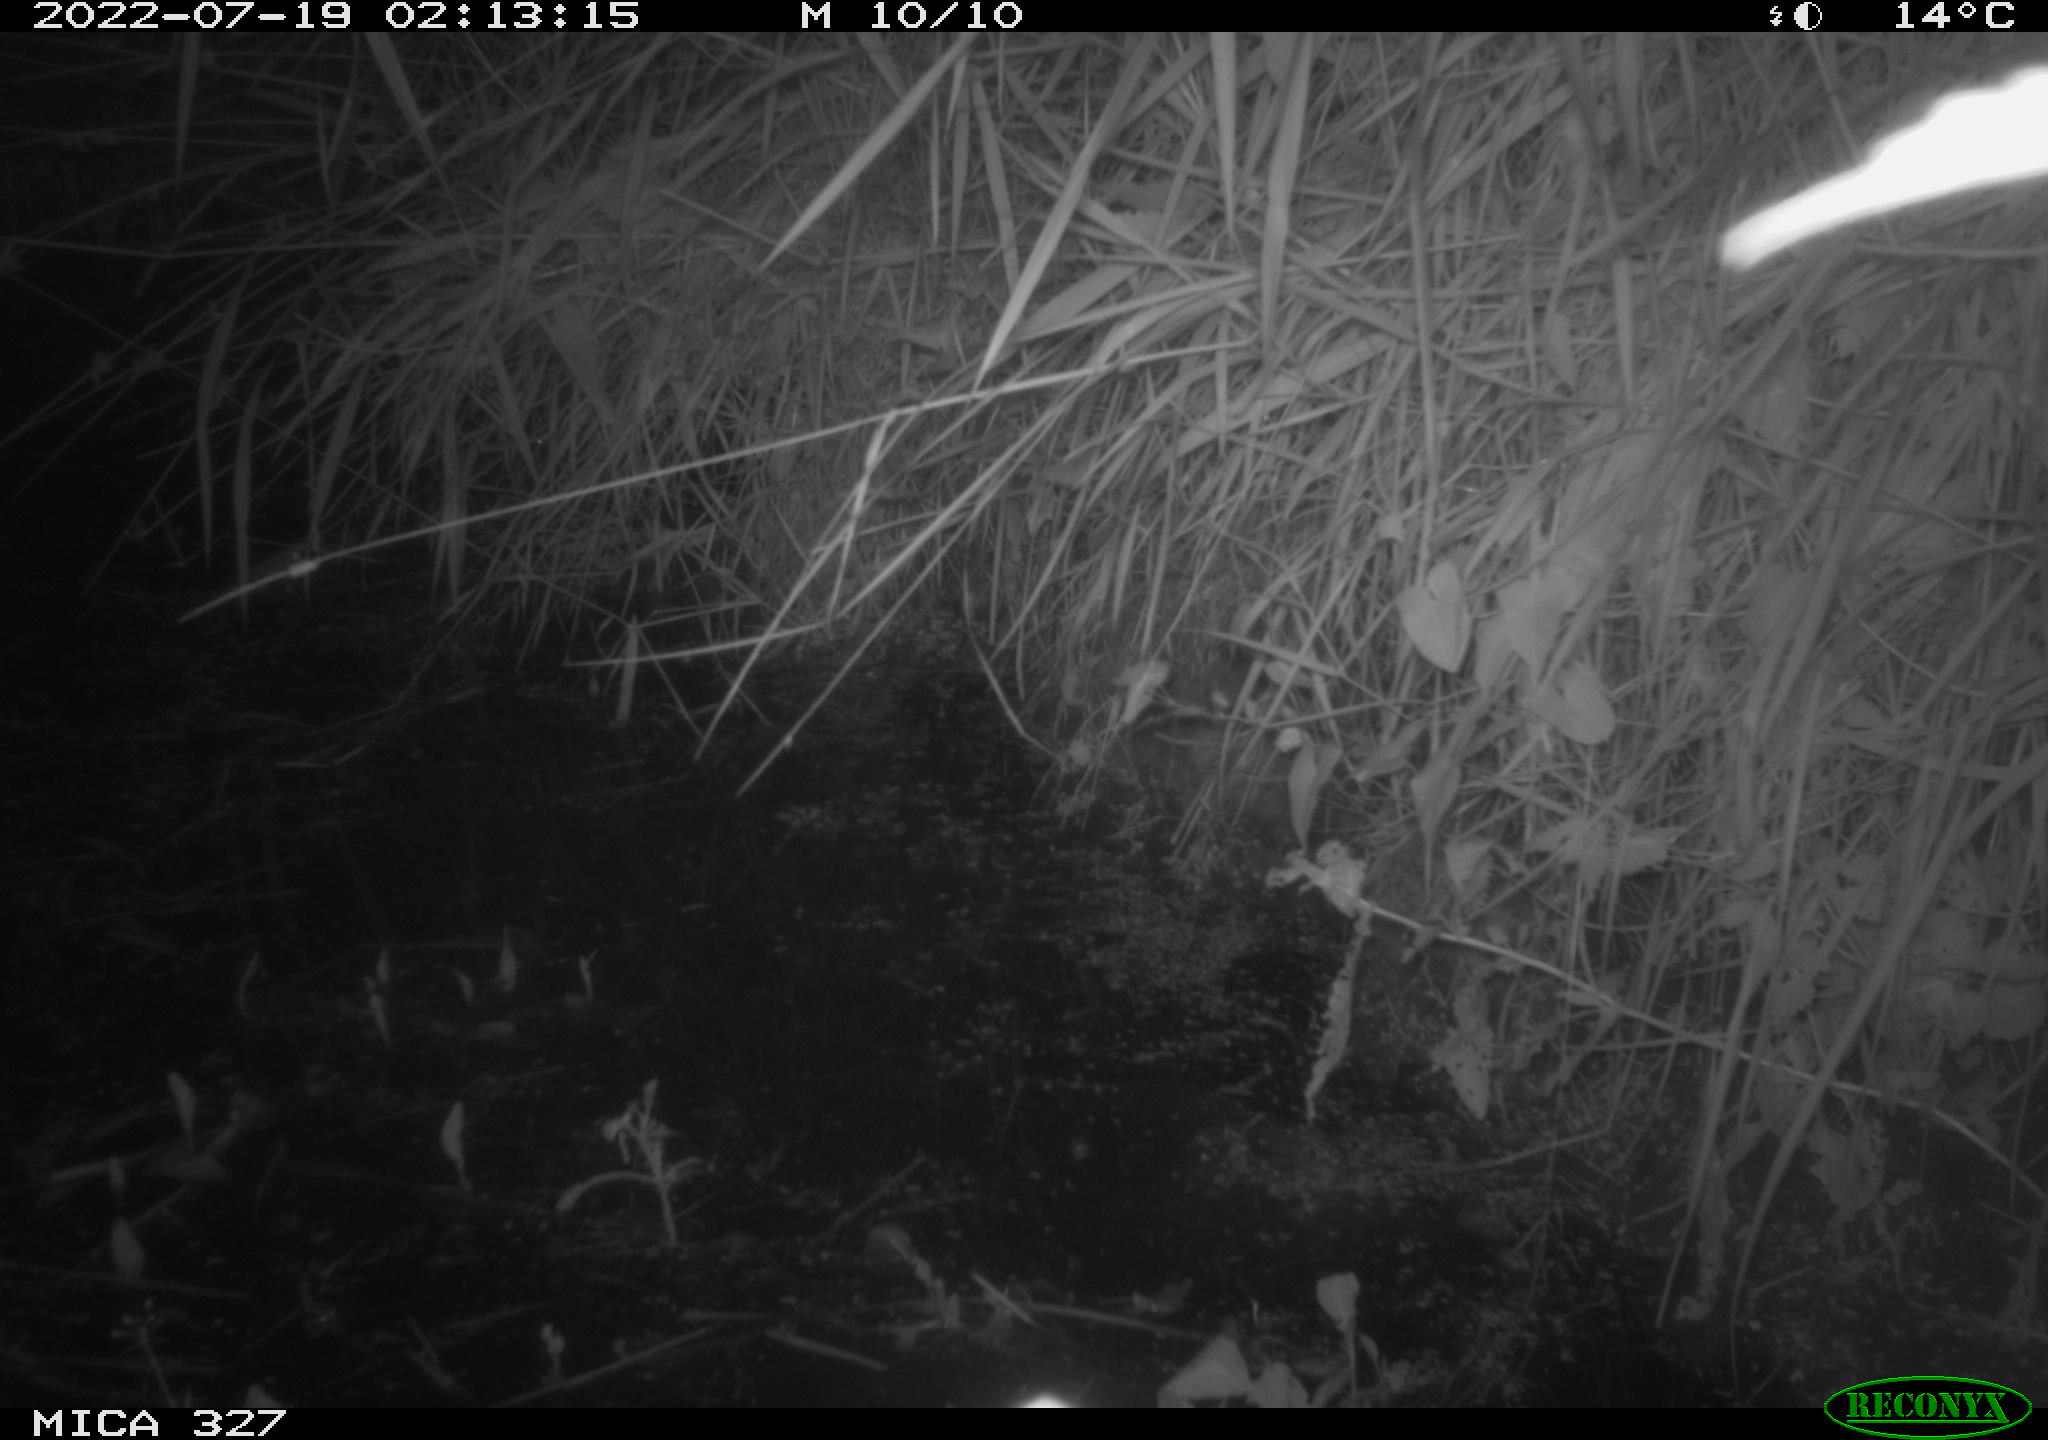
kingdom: Animalia
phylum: Chordata
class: Mammalia
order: Rodentia
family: Muridae
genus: Rattus
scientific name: Rattus norvegicus
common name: Brown rat
